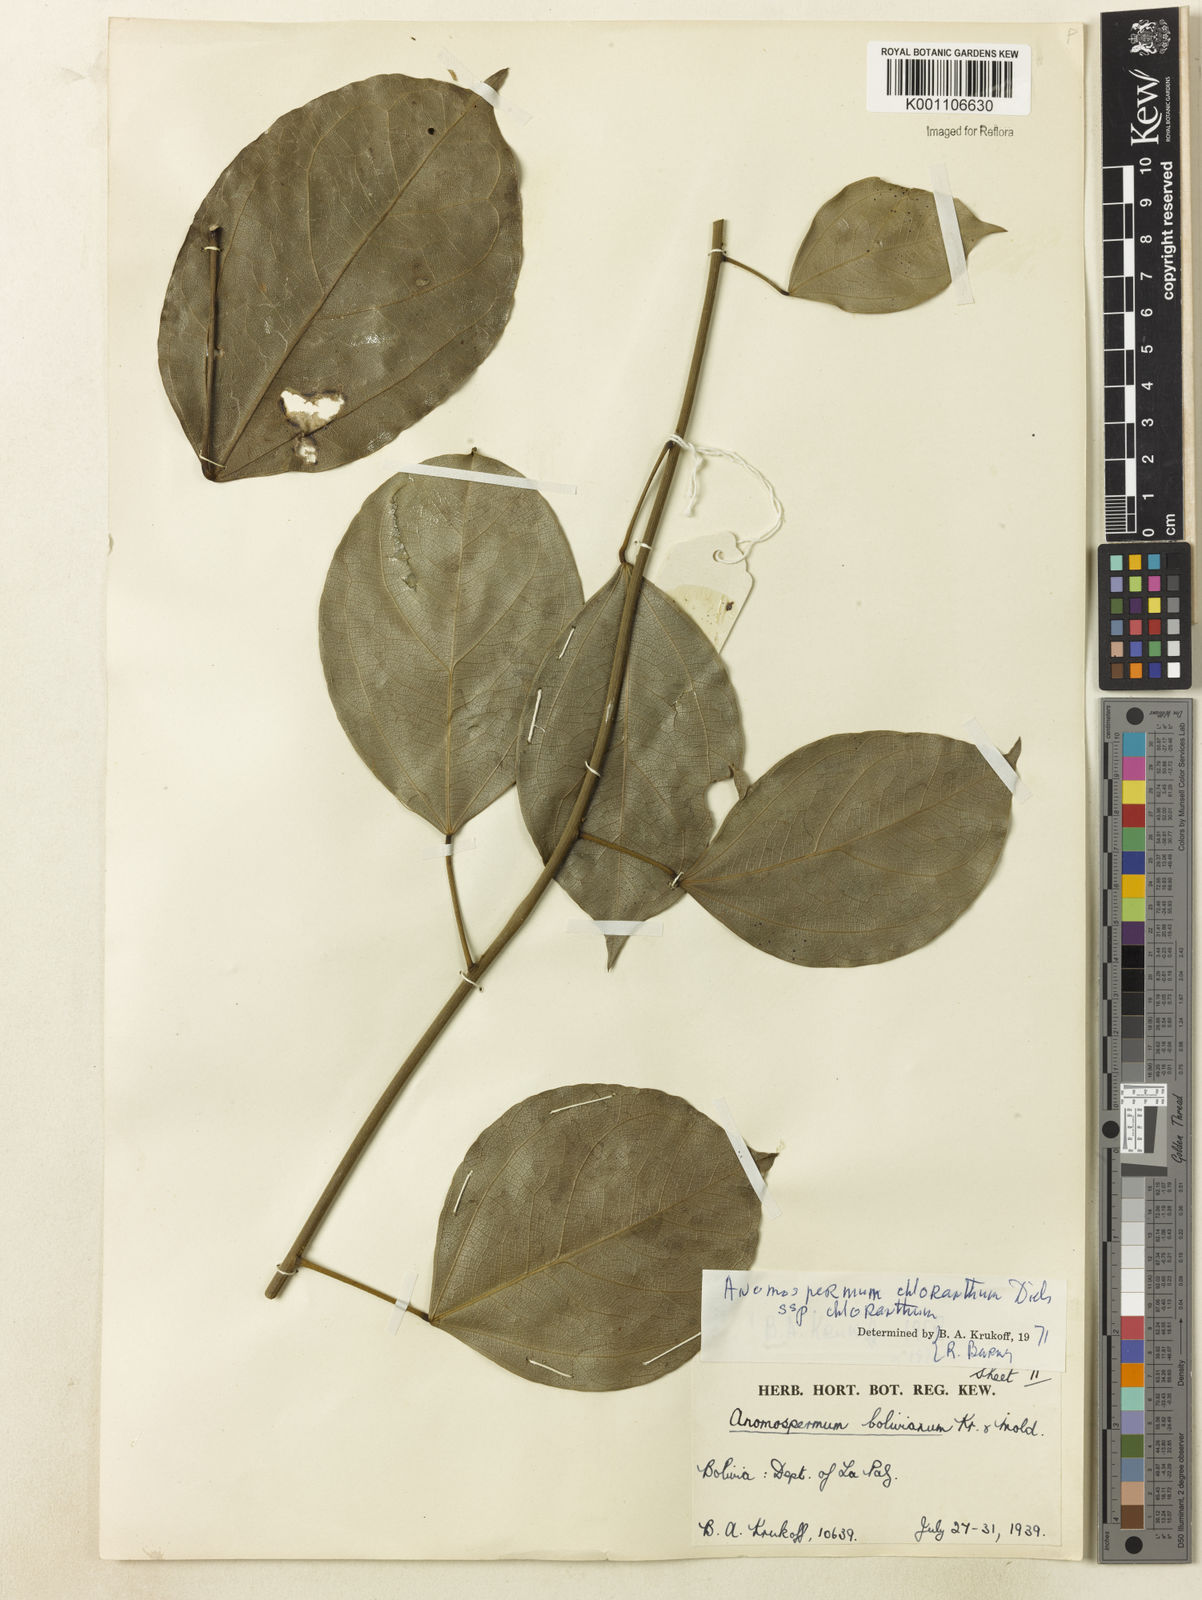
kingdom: Plantae
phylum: Tracheophyta
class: Magnoliopsida
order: Ranunculales
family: Menispermaceae
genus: Anomospermum
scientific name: Anomospermum chloranthum
